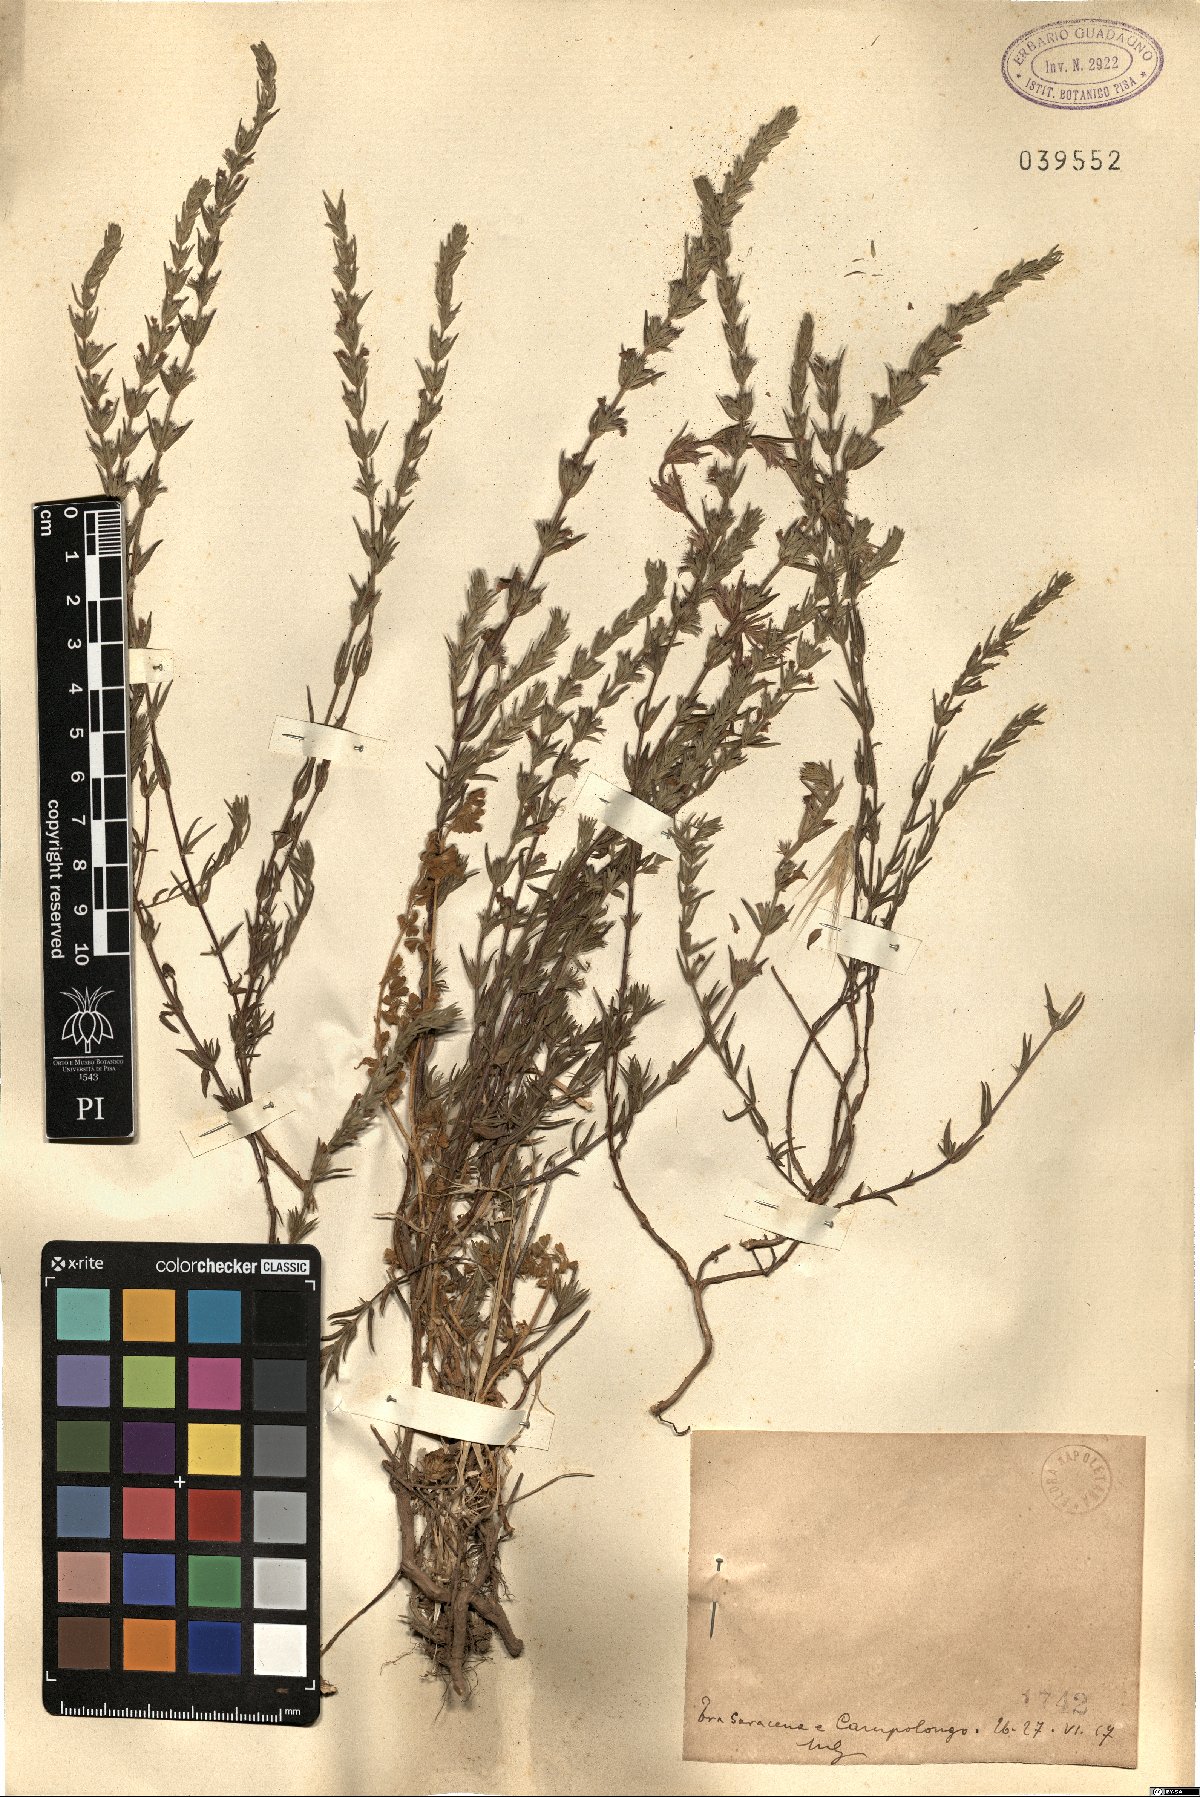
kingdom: Plantae
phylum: Tracheophyta
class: Magnoliopsida
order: Lamiales
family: Lamiaceae
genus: Micromeria
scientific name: Micromeria
